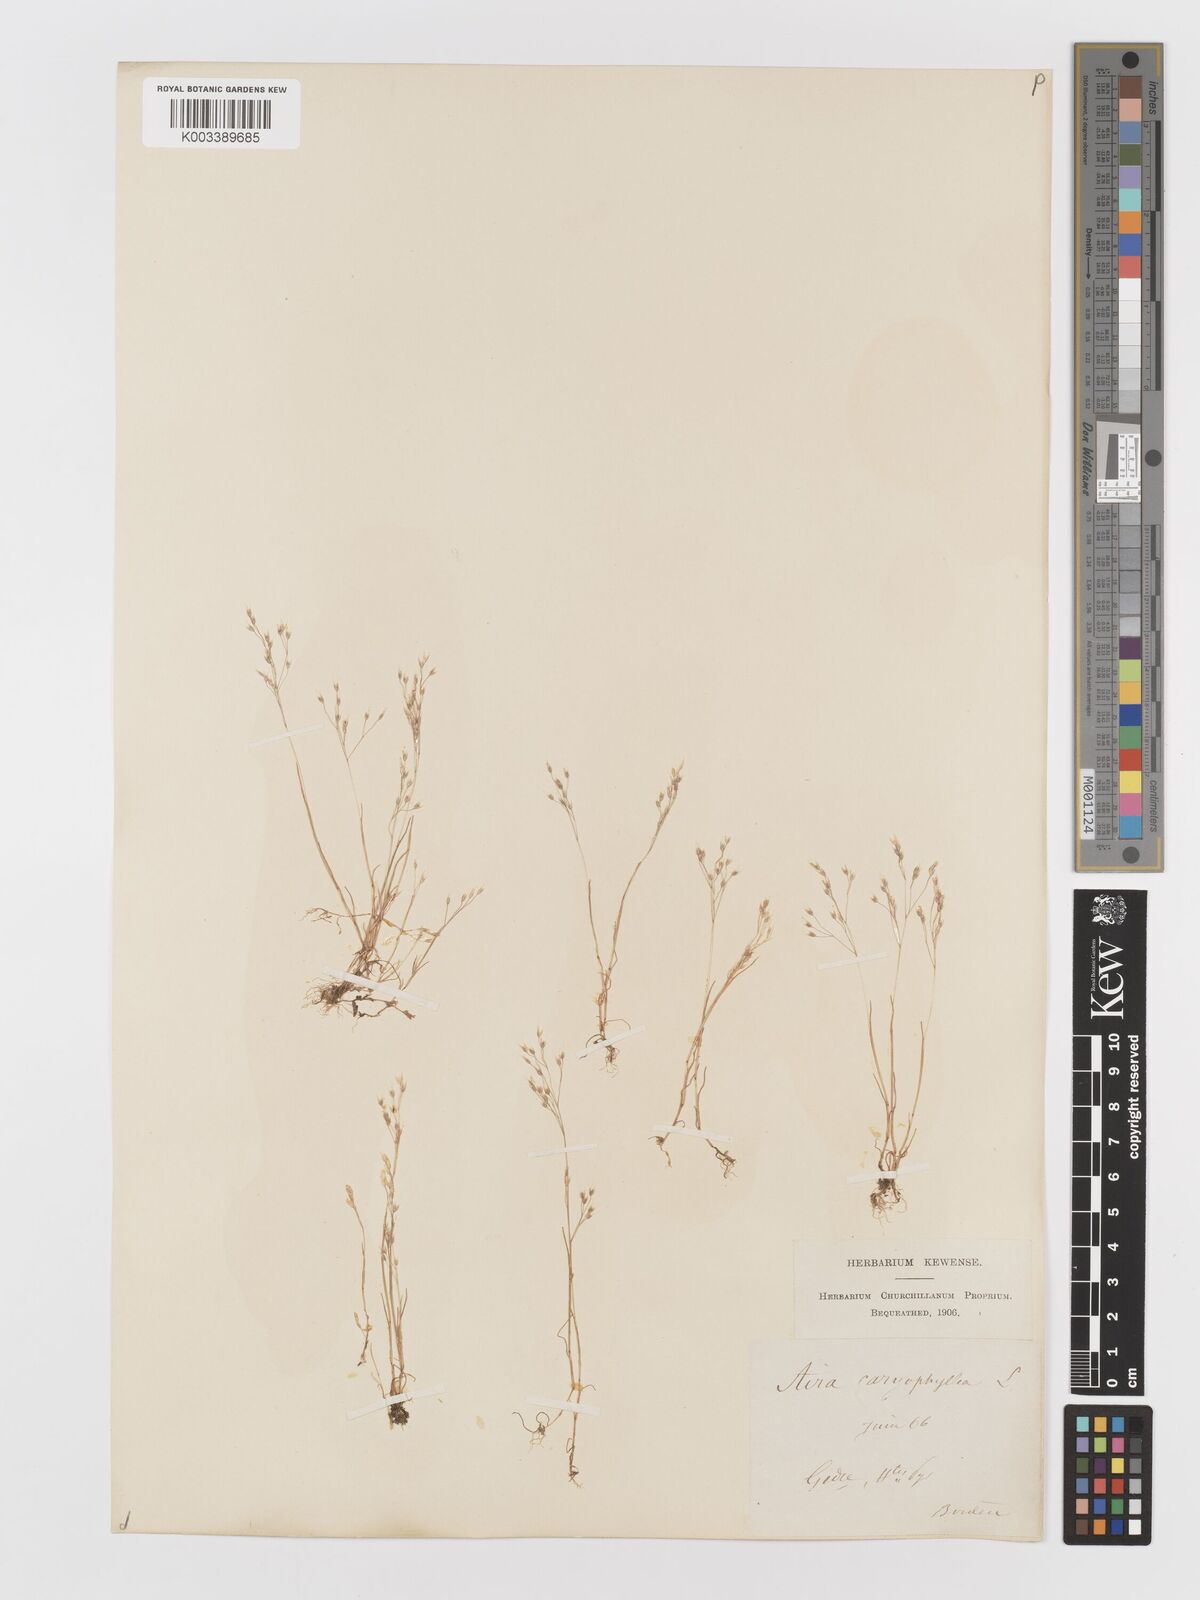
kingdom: Plantae
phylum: Tracheophyta
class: Liliopsida
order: Poales
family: Poaceae
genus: Aira
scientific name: Aira caryophyllea
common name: Silver hairgrass
